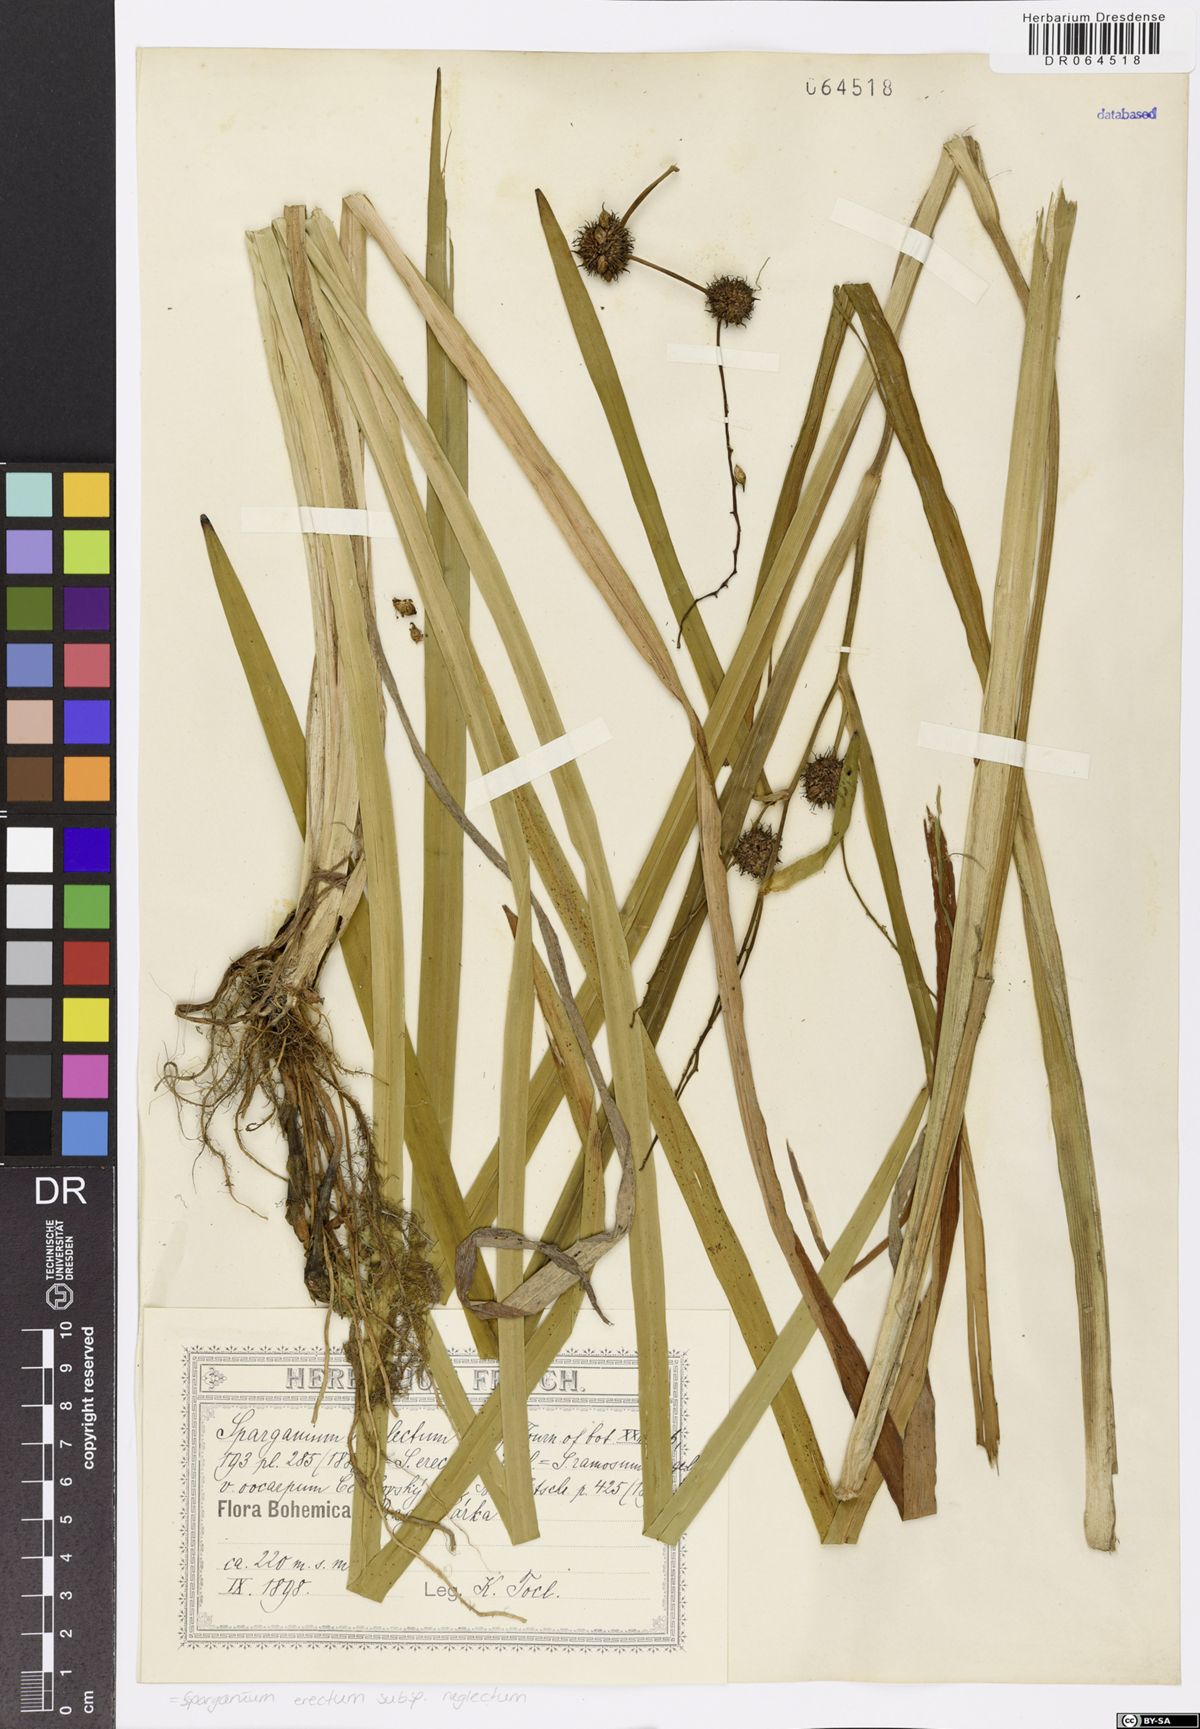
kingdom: Plantae
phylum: Tracheophyta
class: Liliopsida
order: Poales
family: Typhaceae
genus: Sparganium
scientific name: Sparganium erectum
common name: Branched bur-reed
